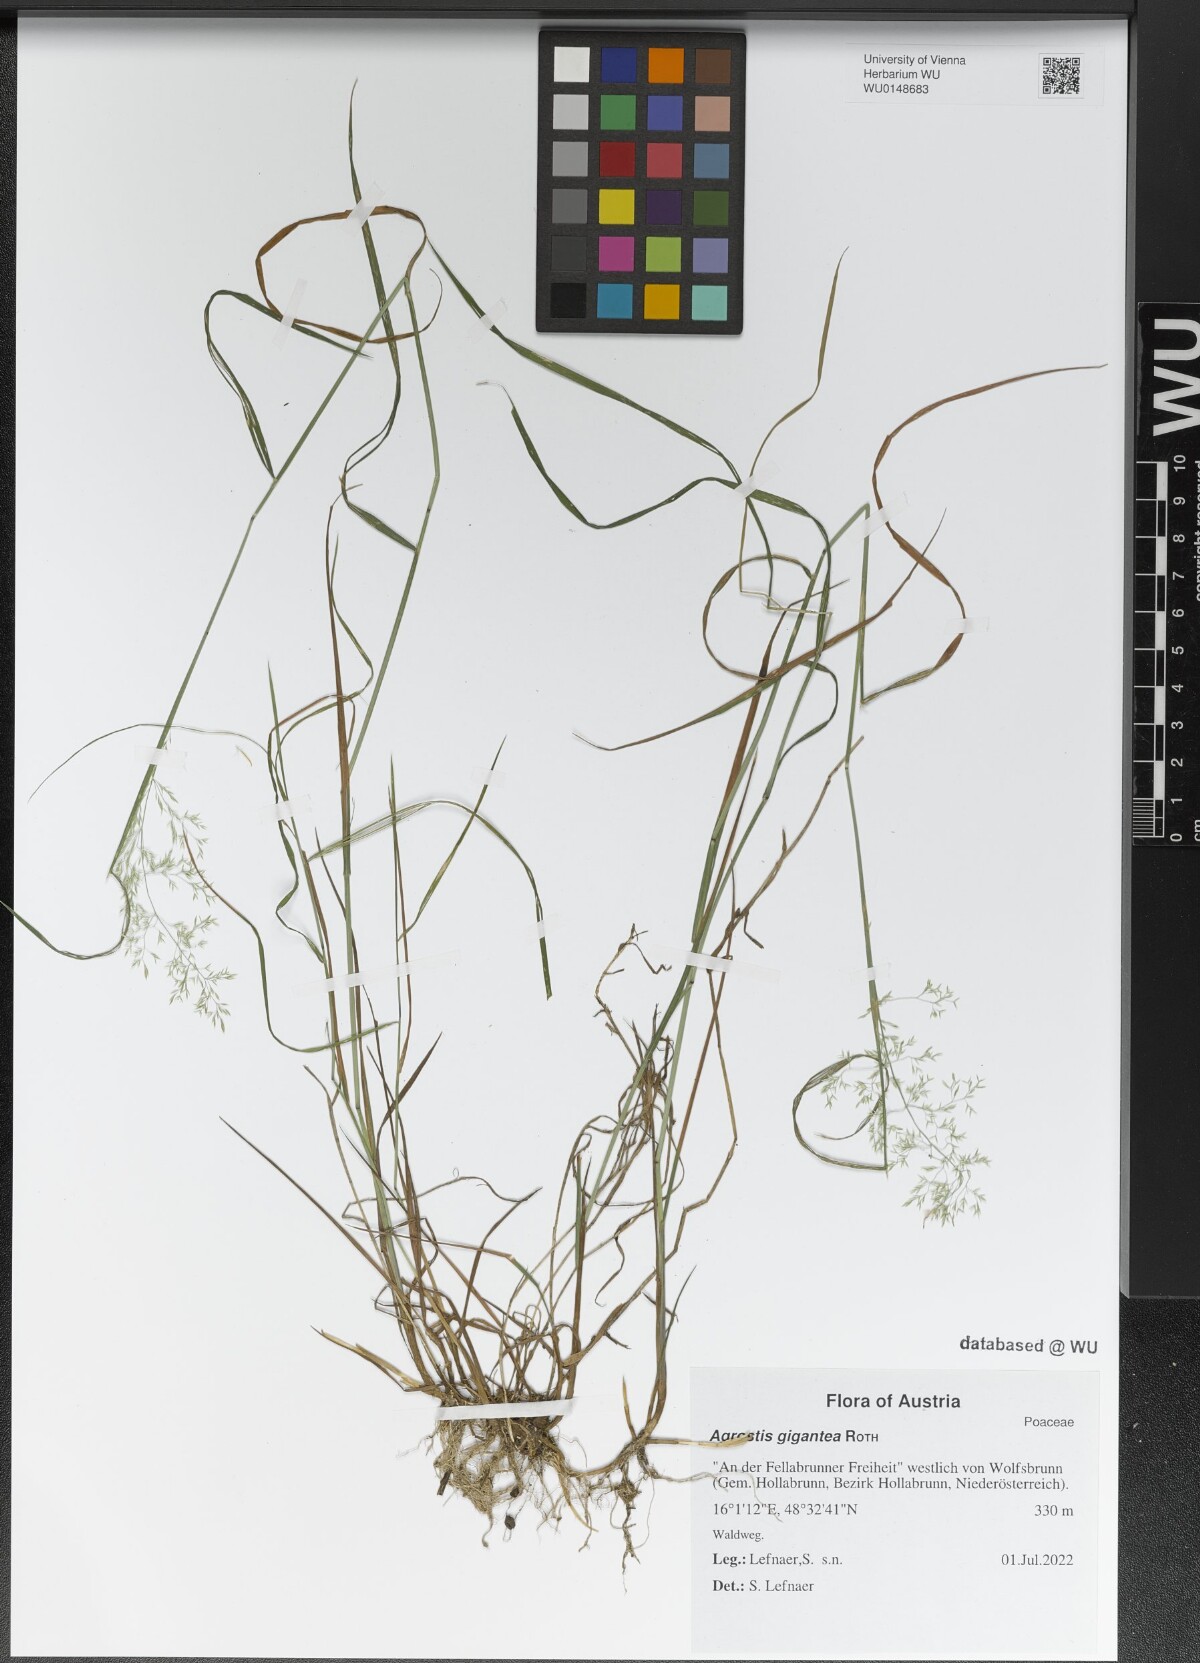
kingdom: Plantae
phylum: Tracheophyta
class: Liliopsida
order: Poales
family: Poaceae
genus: Agrostis
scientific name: Agrostis gigantea
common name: Black bent
